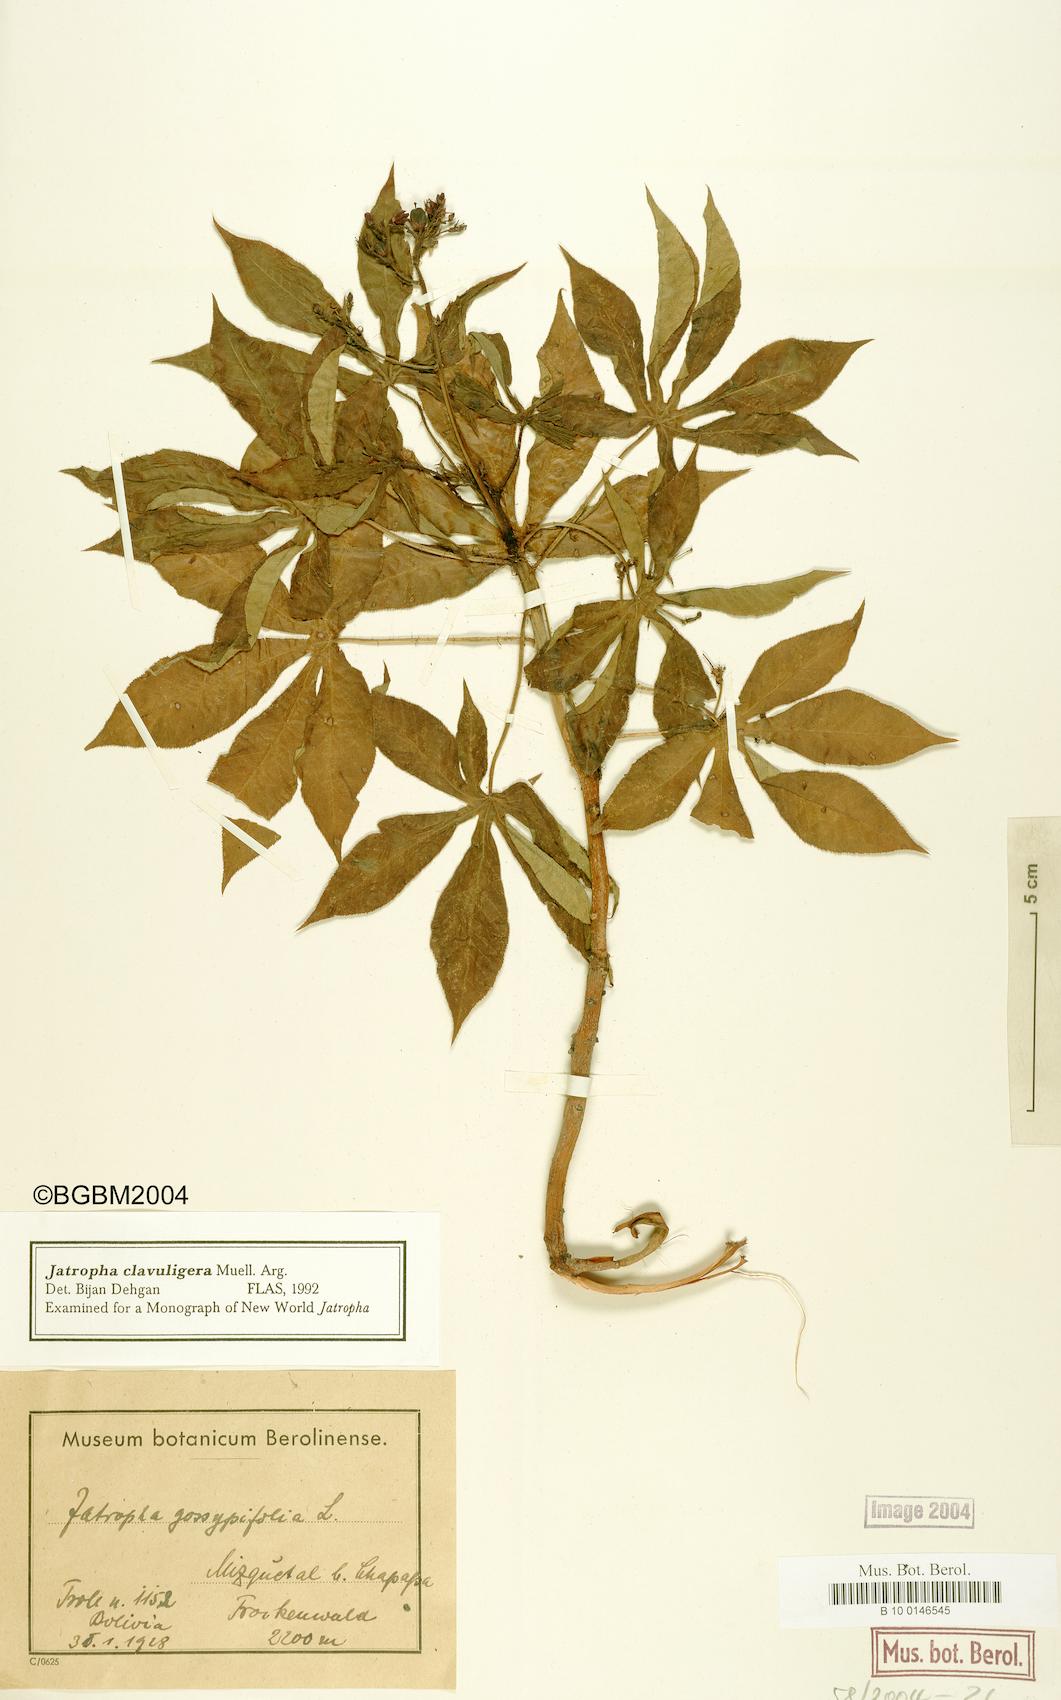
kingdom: Plantae
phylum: Tracheophyta
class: Magnoliopsida
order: Malpighiales
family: Euphorbiaceae
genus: Jatropha
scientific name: Jatropha clavuligera
